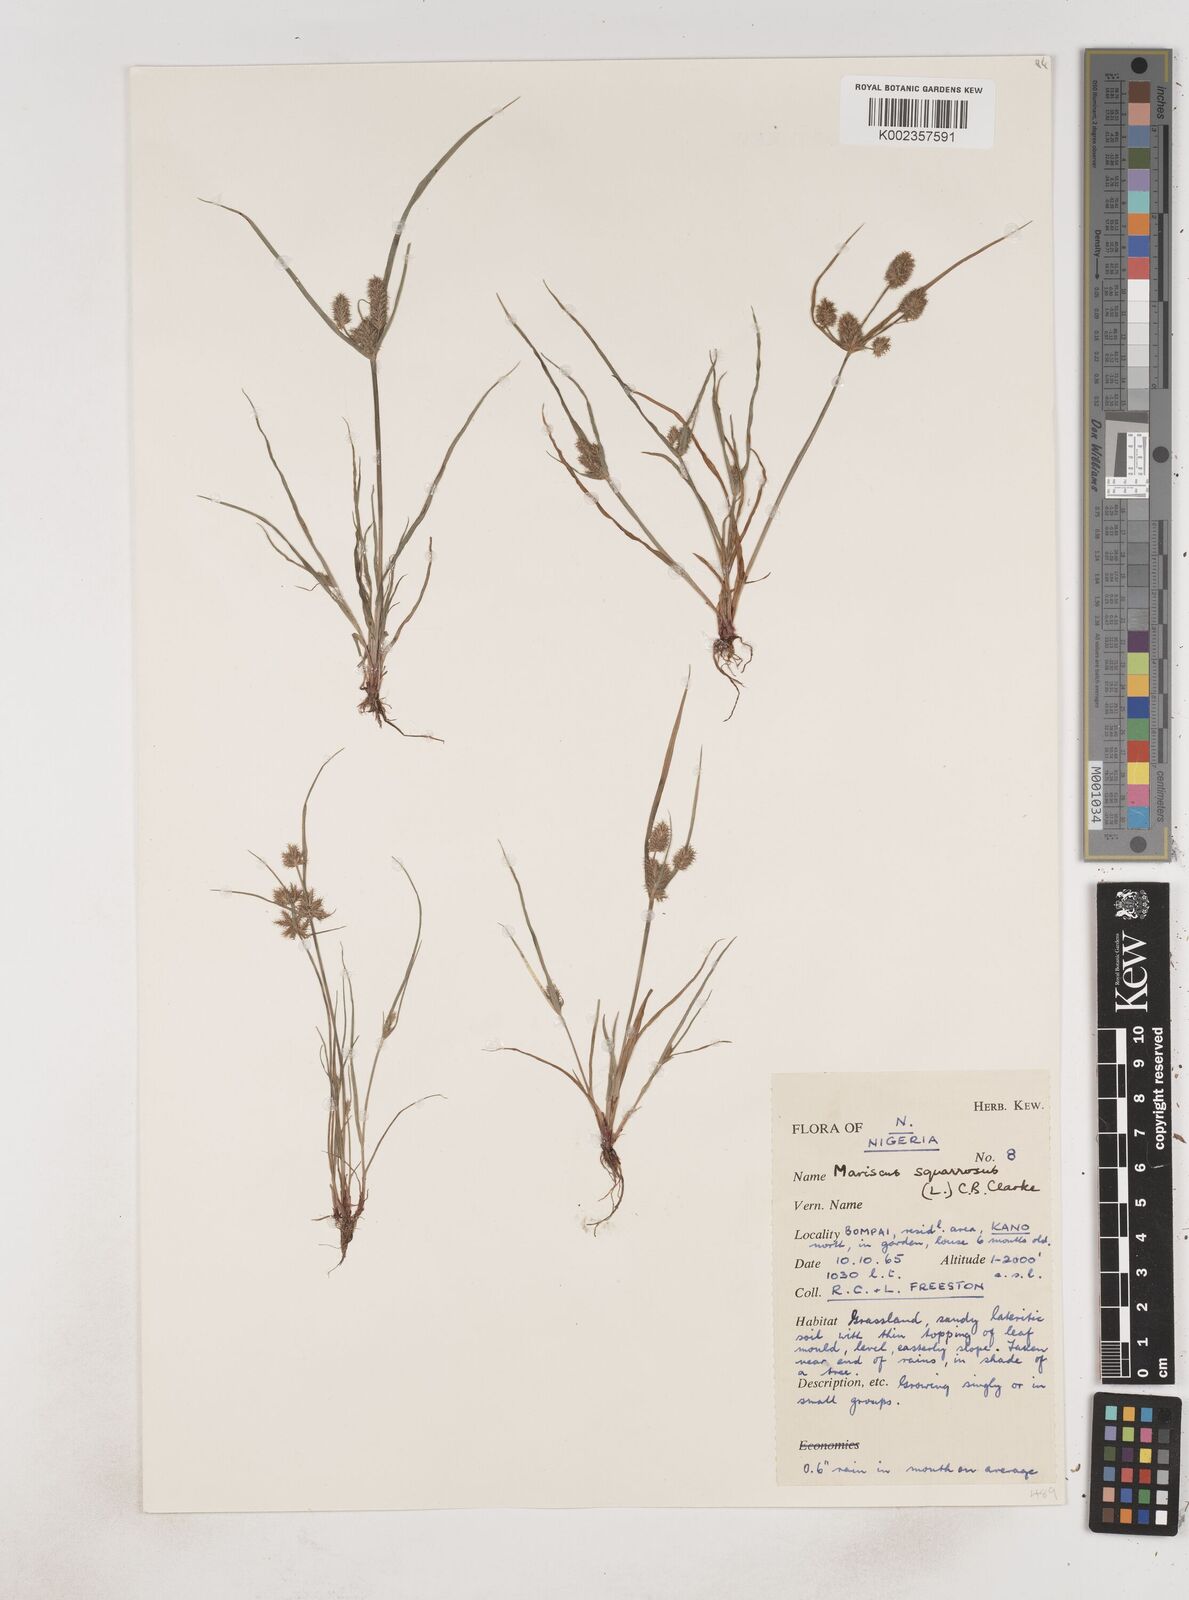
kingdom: Plantae
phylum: Tracheophyta
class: Liliopsida
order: Poales
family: Cyperaceae
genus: Cyperus
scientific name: Cyperus squarrosus
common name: Awned cyperus
